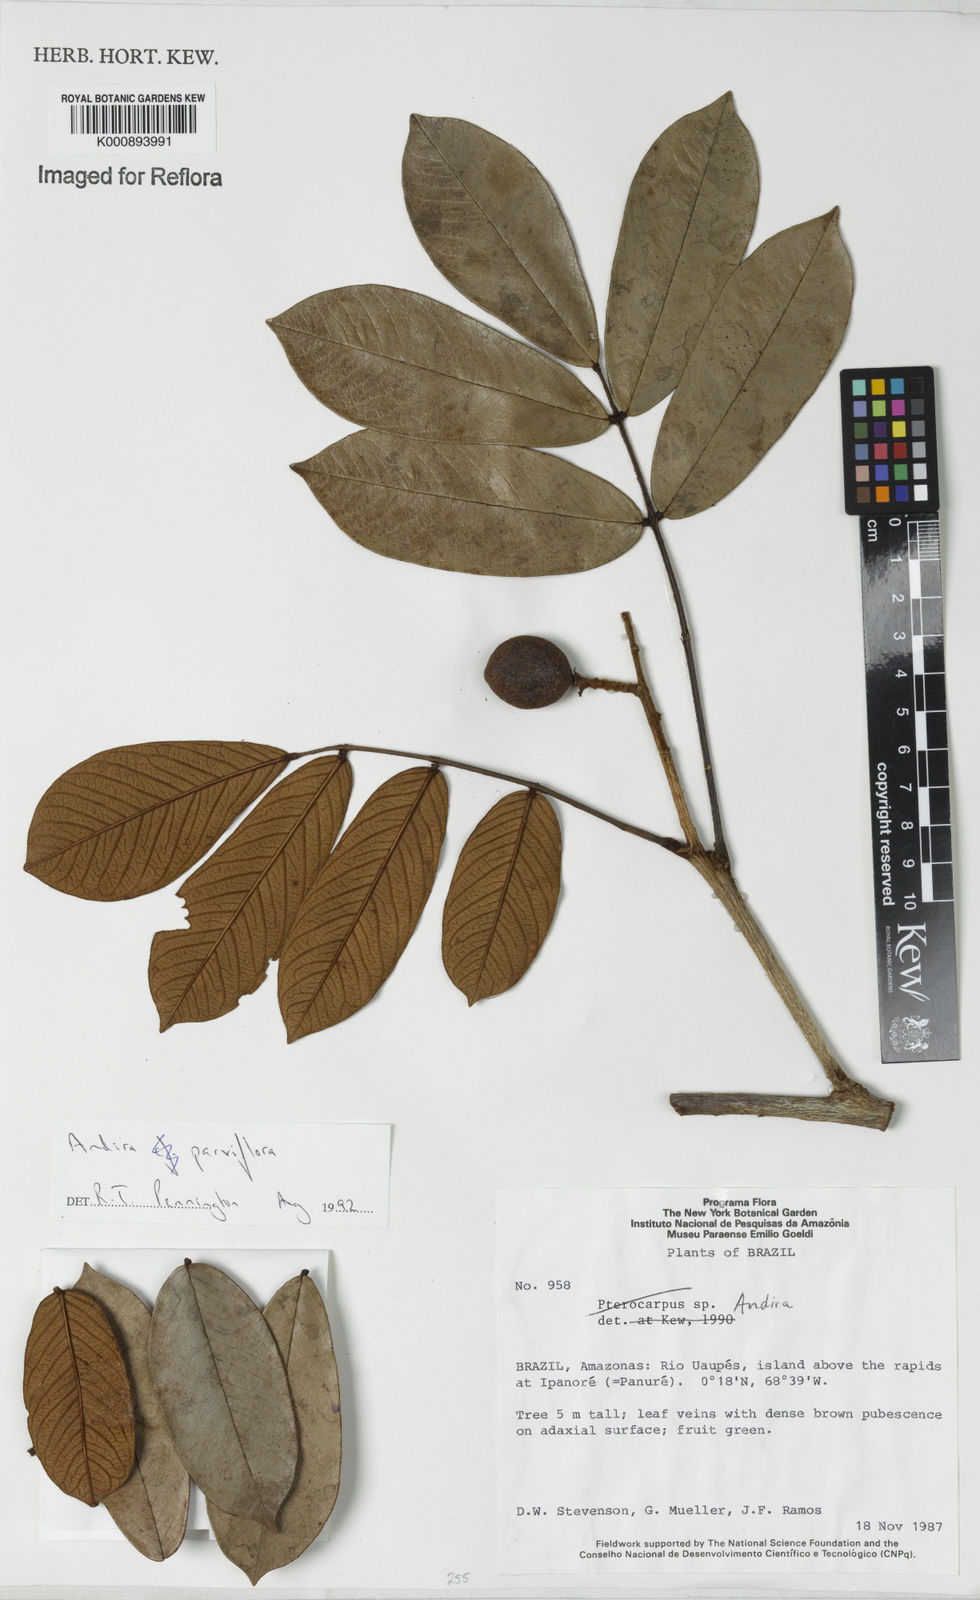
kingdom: Plantae
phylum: Tracheophyta
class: Magnoliopsida
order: Fabales
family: Fabaceae
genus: Andira
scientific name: Andira parviflora
